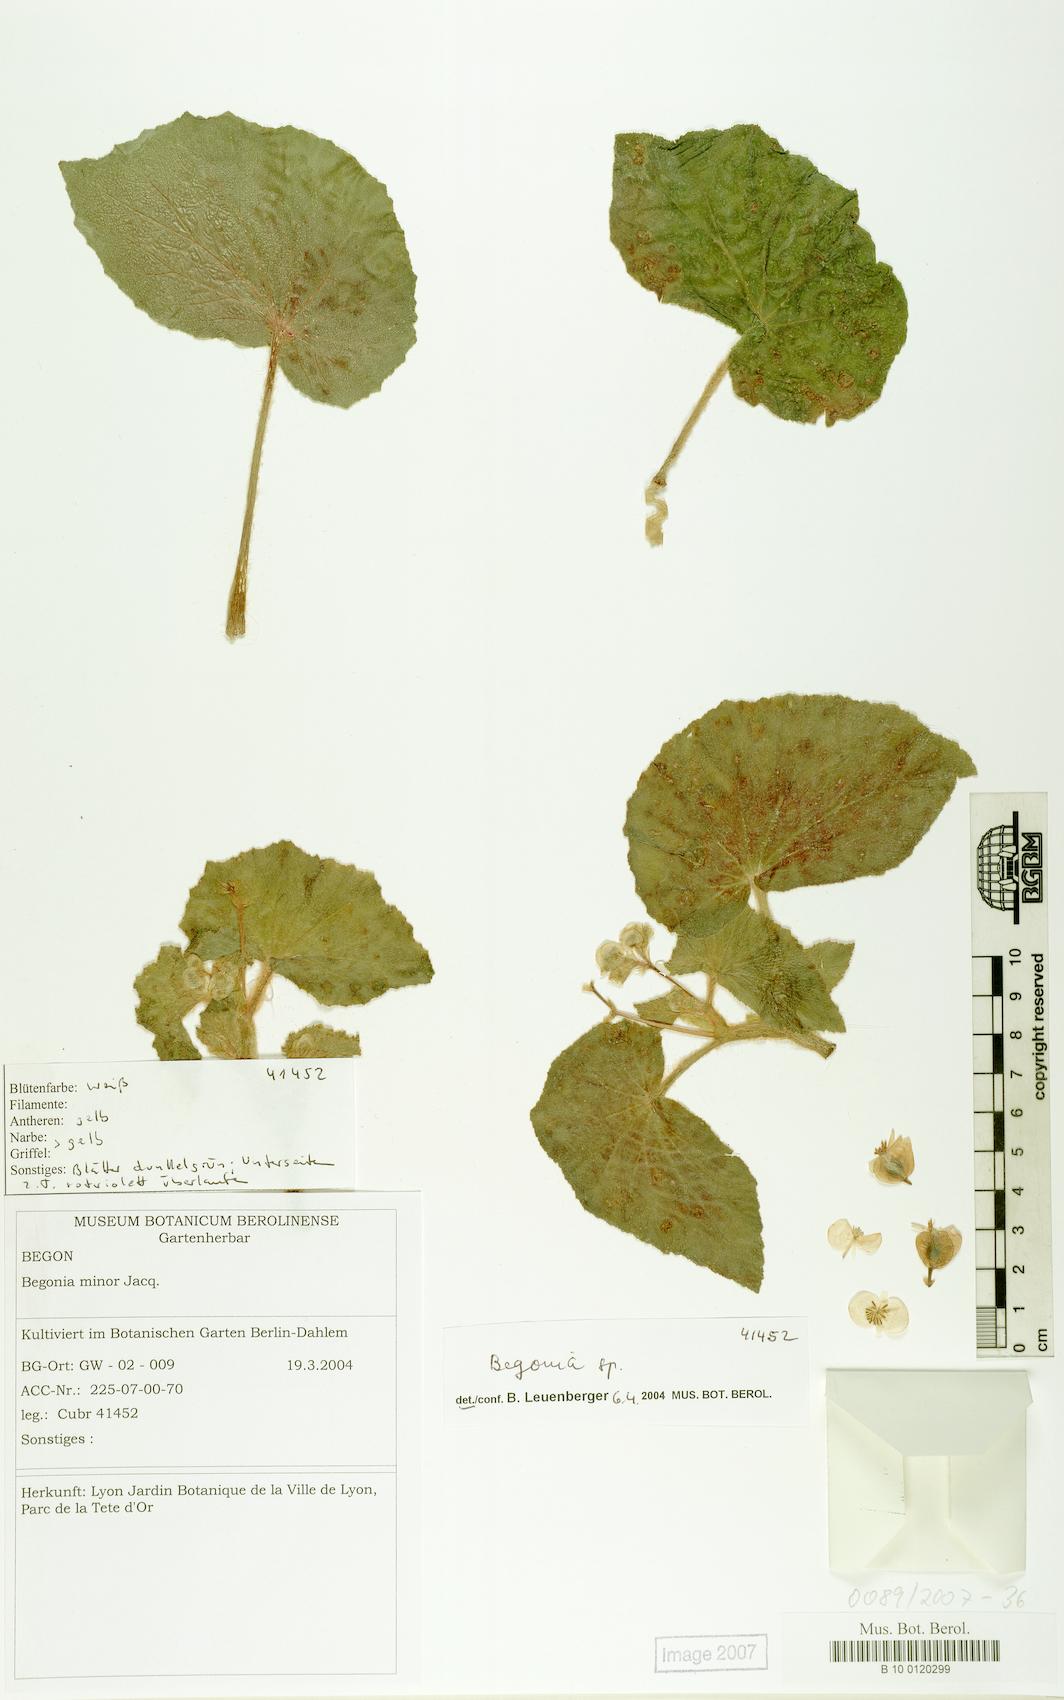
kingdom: Plantae
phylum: Tracheophyta
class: Magnoliopsida
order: Cucurbitales
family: Begoniaceae
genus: Begonia
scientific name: Begonia
